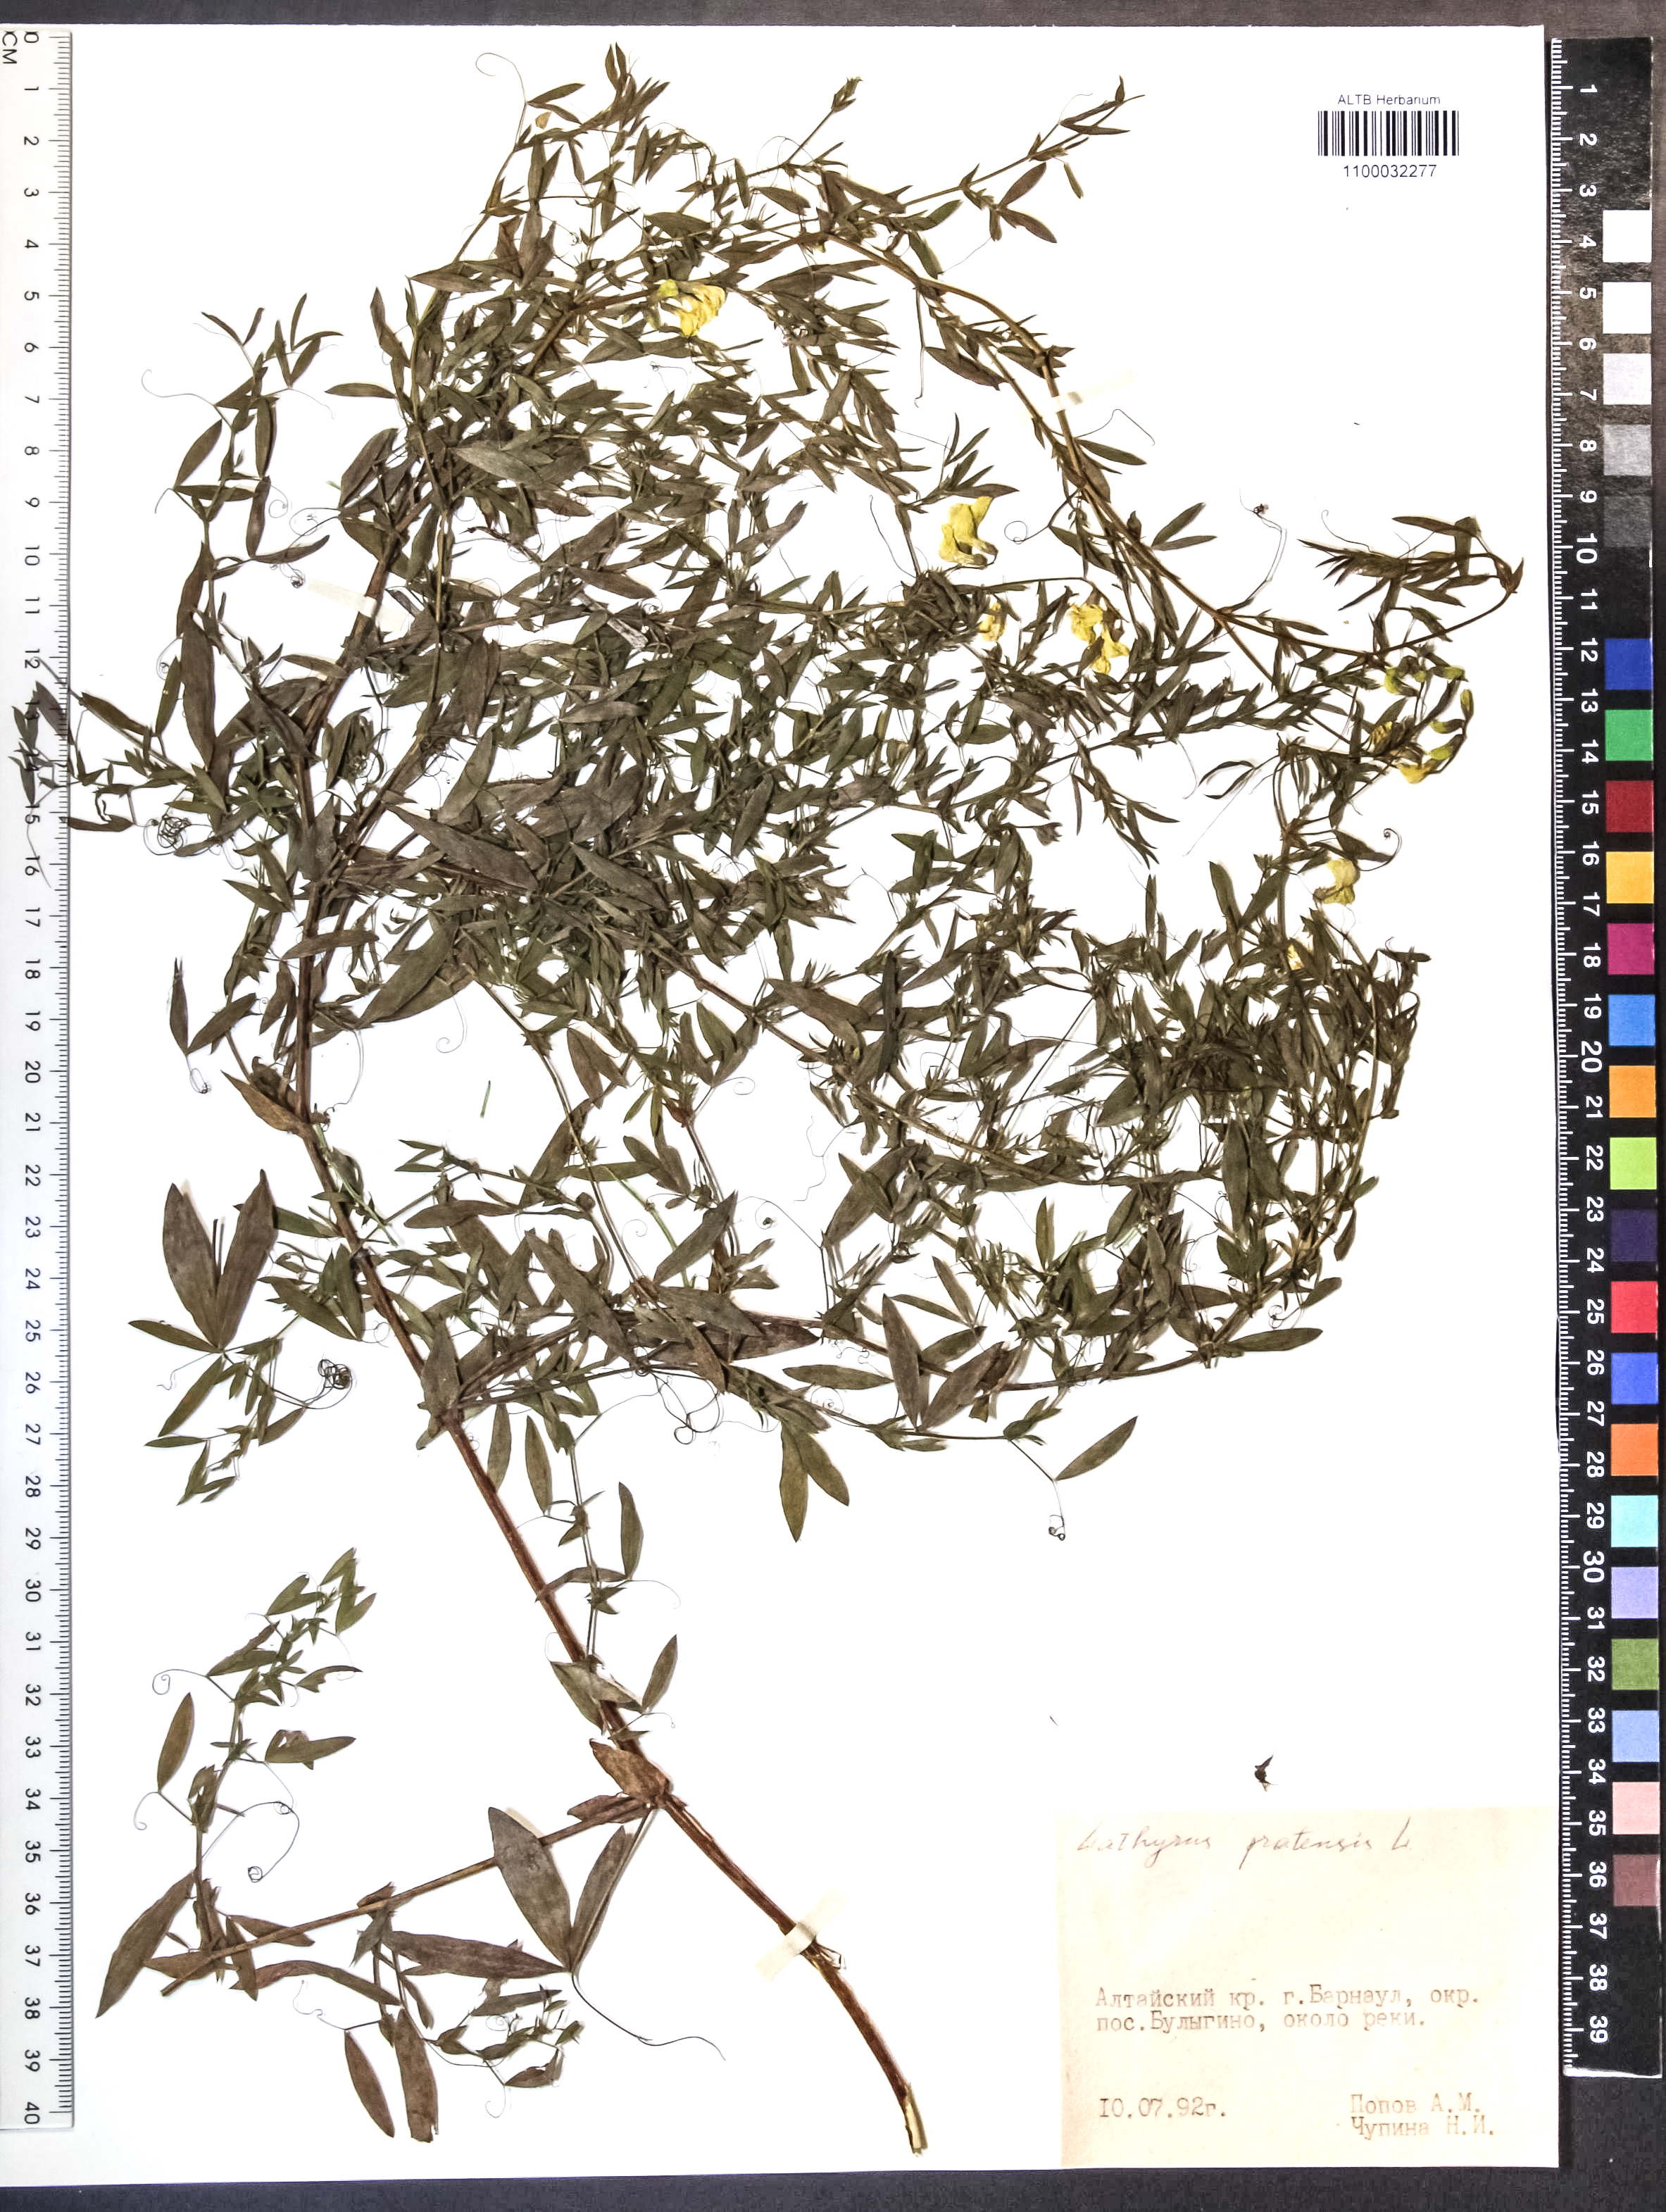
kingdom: Plantae
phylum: Tracheophyta
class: Magnoliopsida
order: Fabales
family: Fabaceae
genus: Lathyrus
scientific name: Lathyrus pratensis
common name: Meadow vetchling
